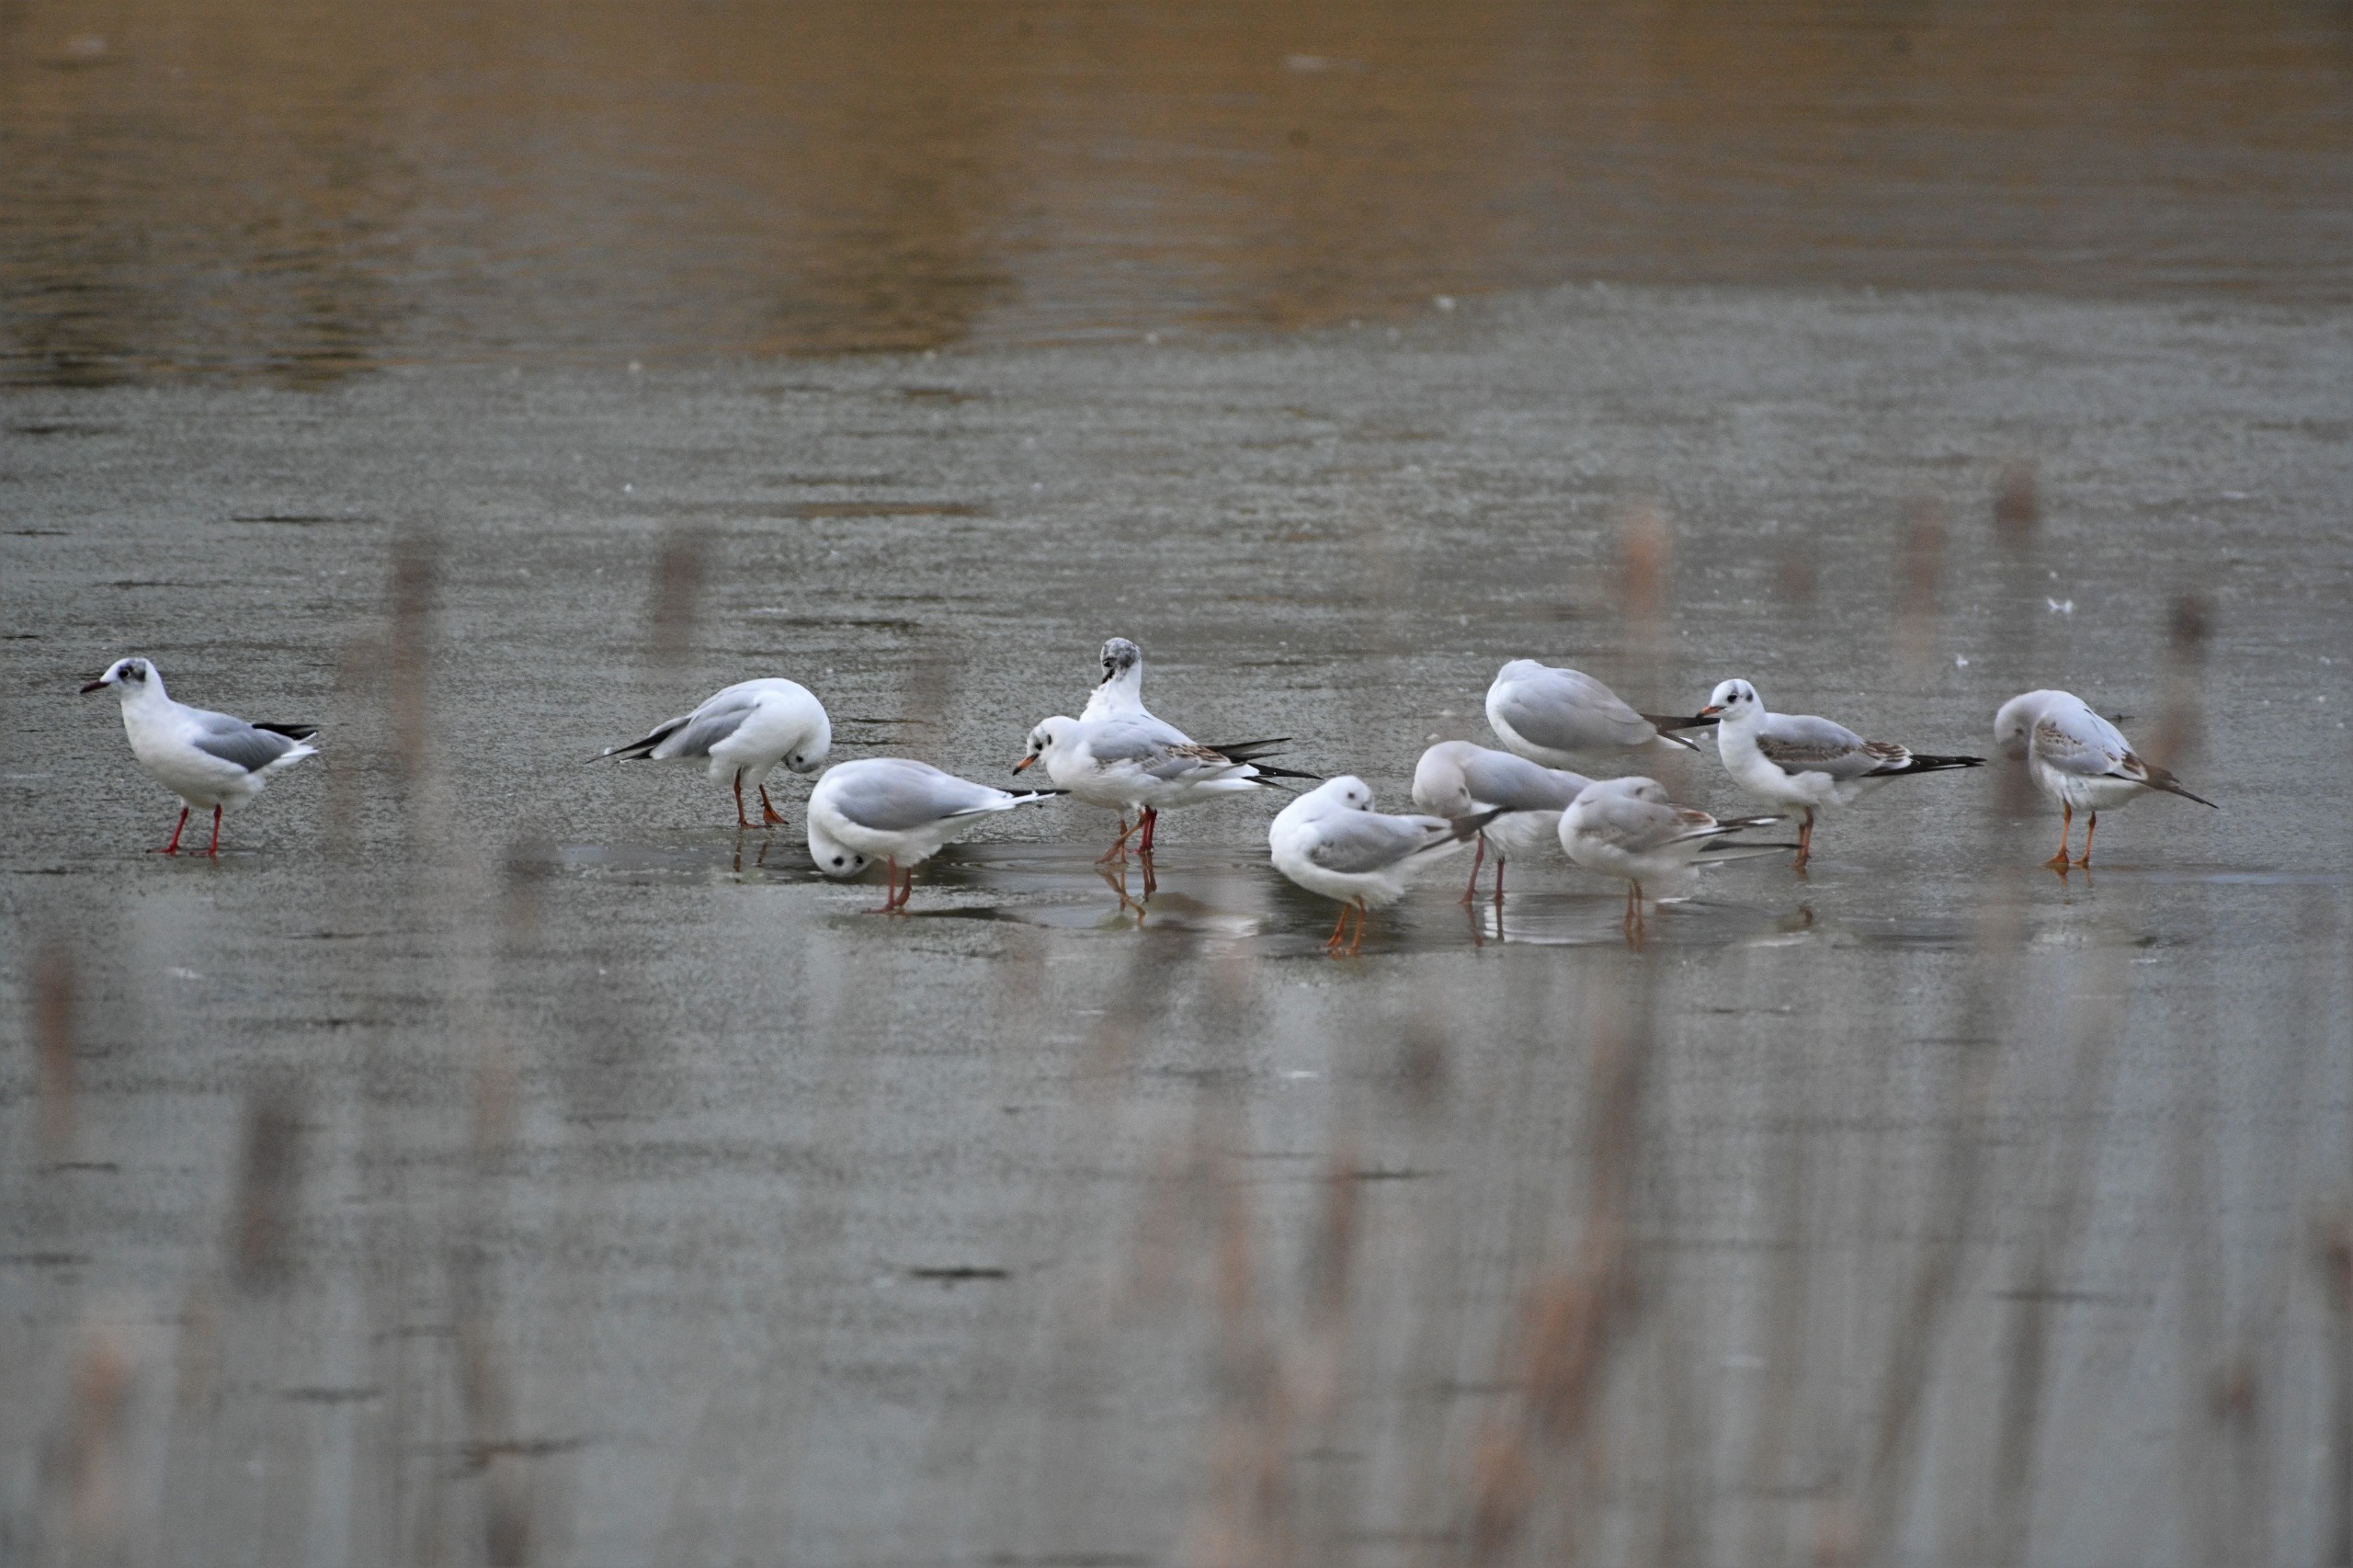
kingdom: Animalia
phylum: Chordata
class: Aves
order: Charadriiformes
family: Laridae
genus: Chroicocephalus
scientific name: Chroicocephalus ridibundus
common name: Hættemåge
